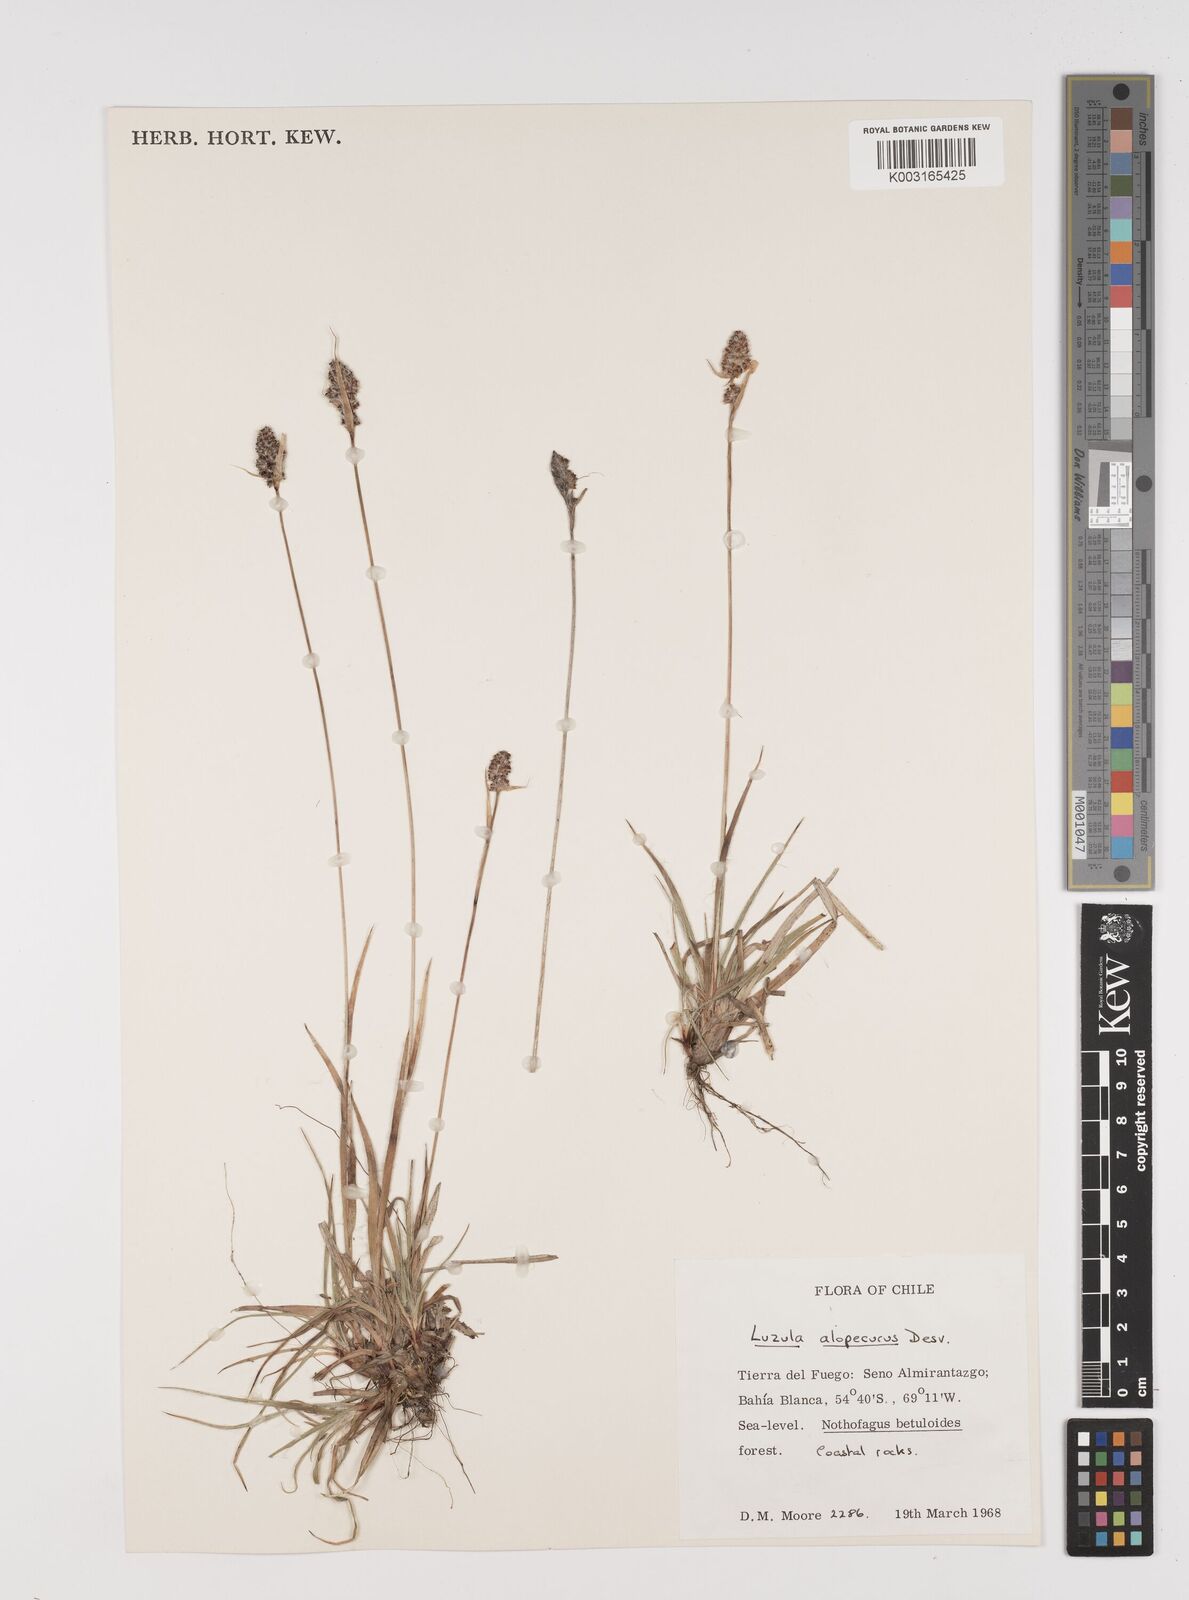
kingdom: Plantae
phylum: Tracheophyta
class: Liliopsida
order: Poales
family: Juncaceae
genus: Luzula
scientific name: Luzula alopecurus
